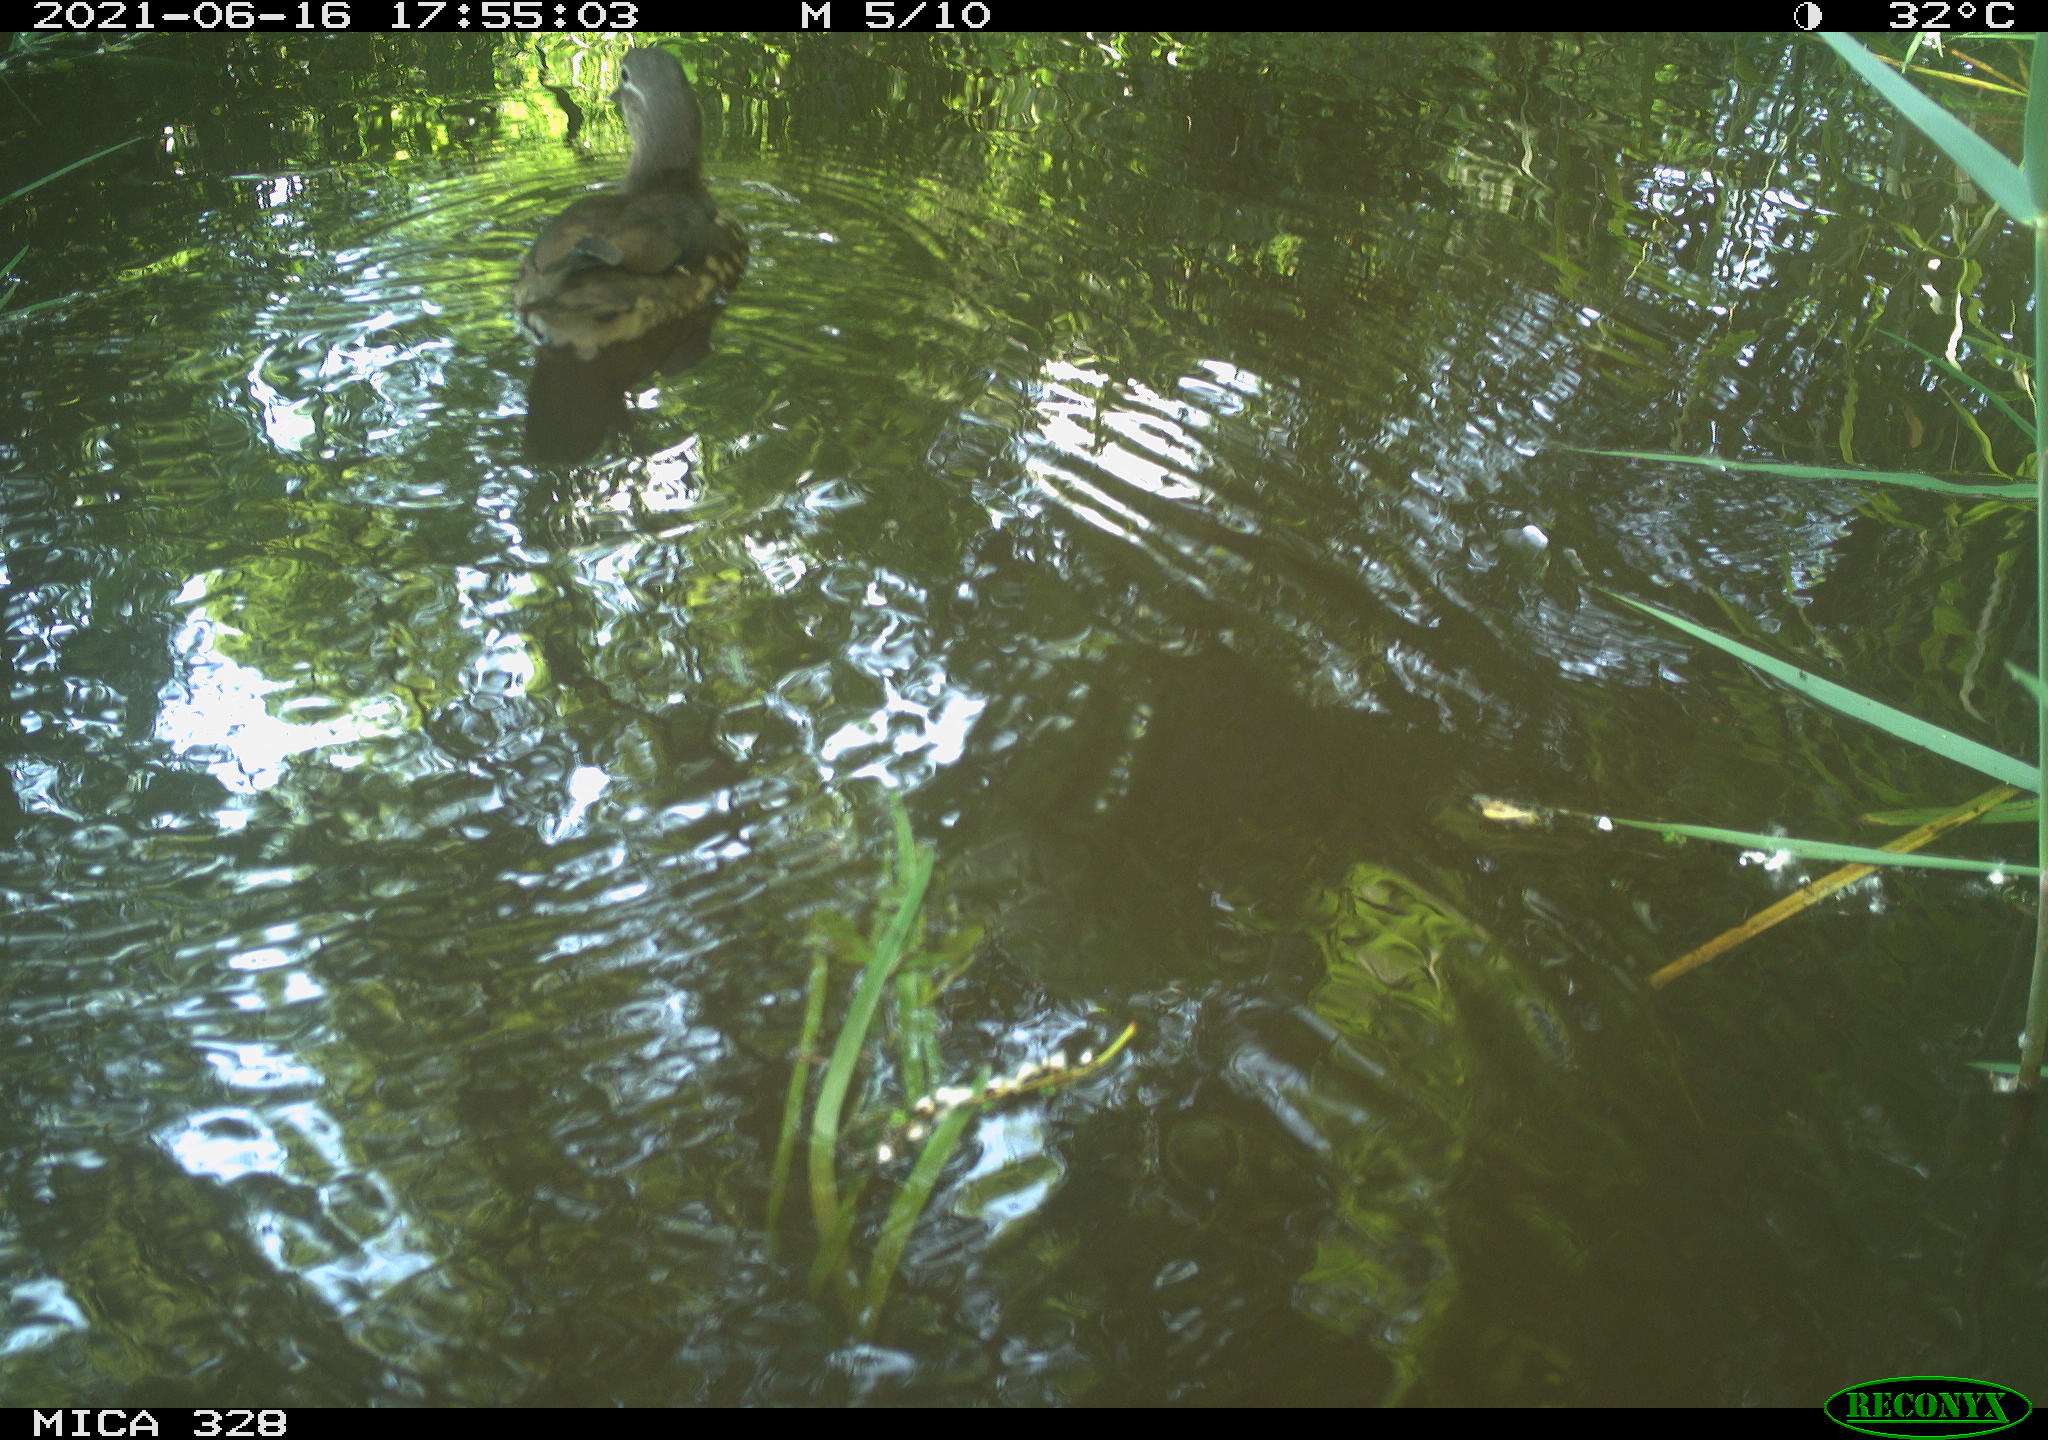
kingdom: Animalia
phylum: Chordata
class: Aves
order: Anseriformes
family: Anatidae
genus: Aix
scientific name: Aix galericulata
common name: Mandarin duck
